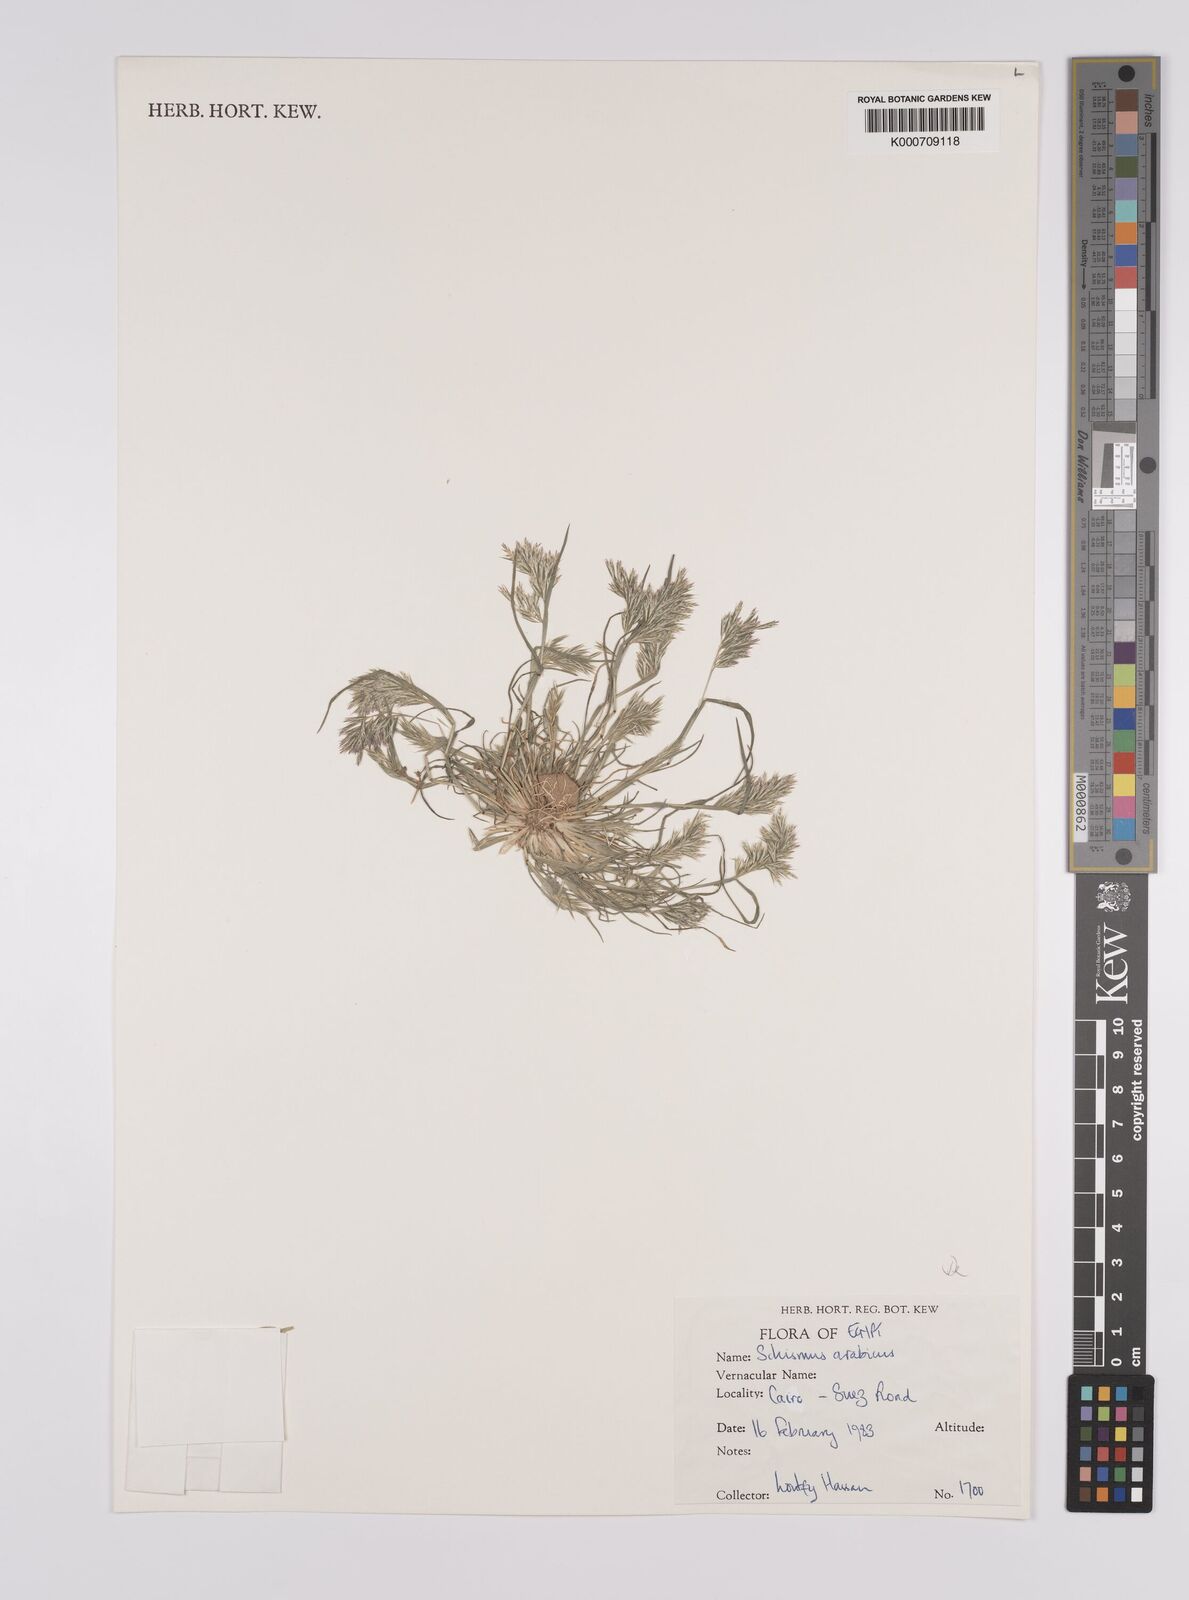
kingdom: Plantae
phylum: Tracheophyta
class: Liliopsida
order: Poales
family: Poaceae
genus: Schismus
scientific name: Schismus arabicus
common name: Arabian schismus
